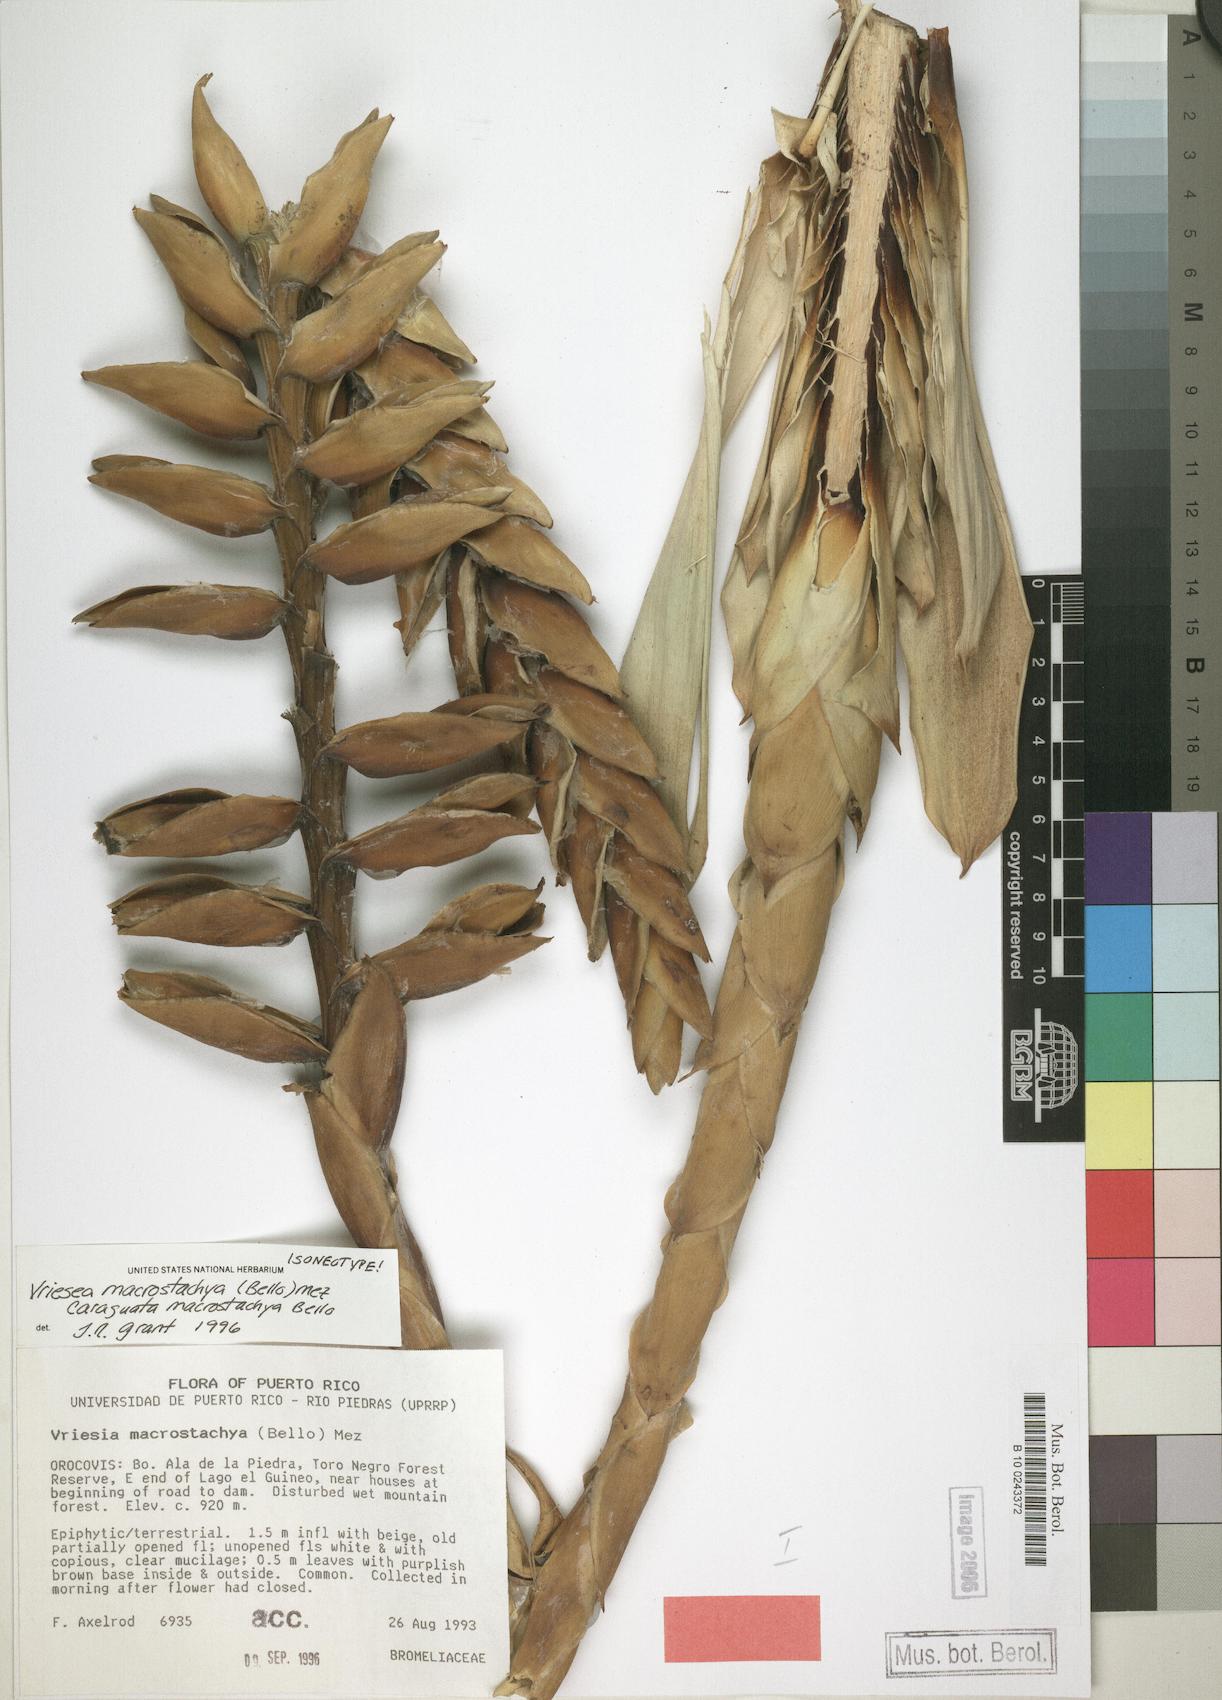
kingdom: Plantae
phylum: Tracheophyta
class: Liliopsida
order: Poales
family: Bromeliaceae
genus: Vriesea
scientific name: Vriesea macrostachya
